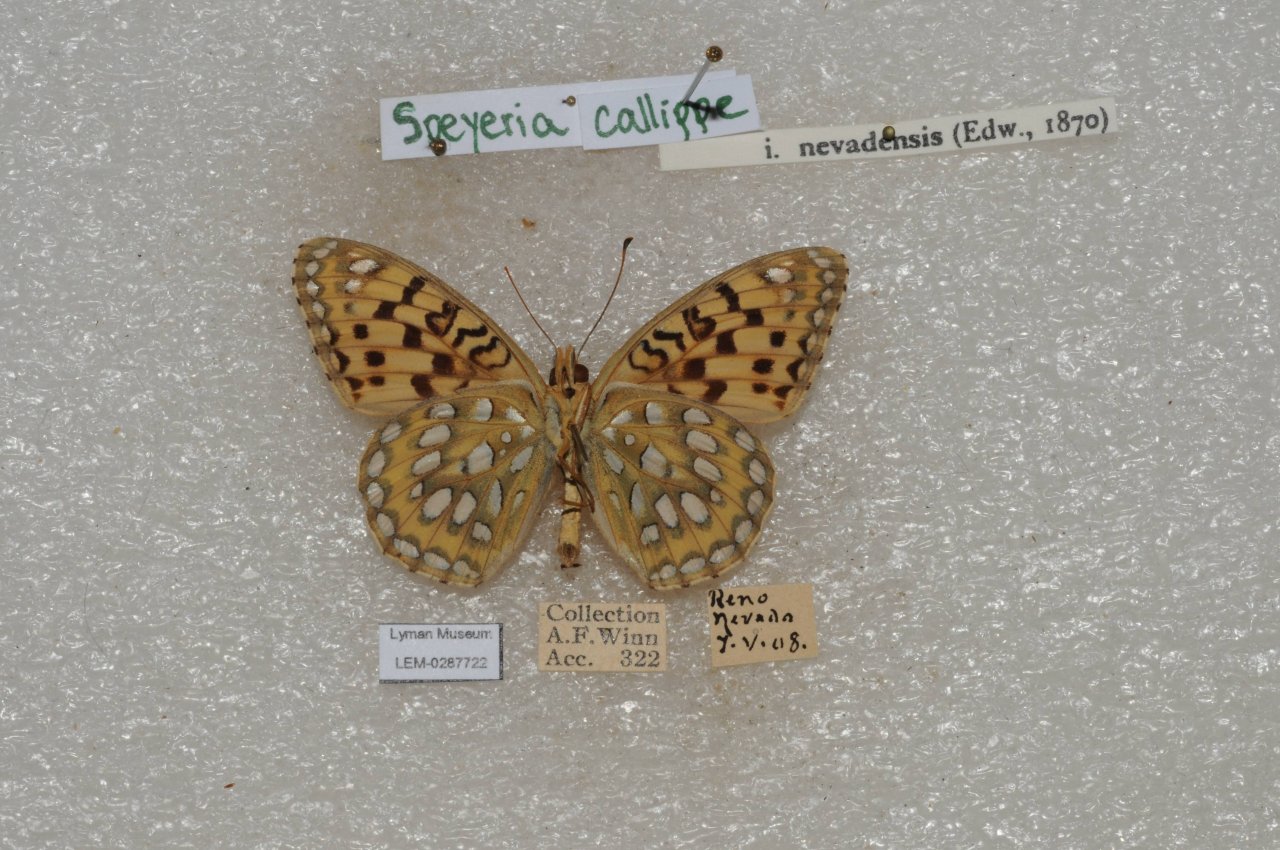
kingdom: Animalia
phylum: Arthropoda
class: Insecta
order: Lepidoptera
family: Nymphalidae
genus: Speyeria
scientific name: Speyeria callippe
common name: Callippe Fritillary
